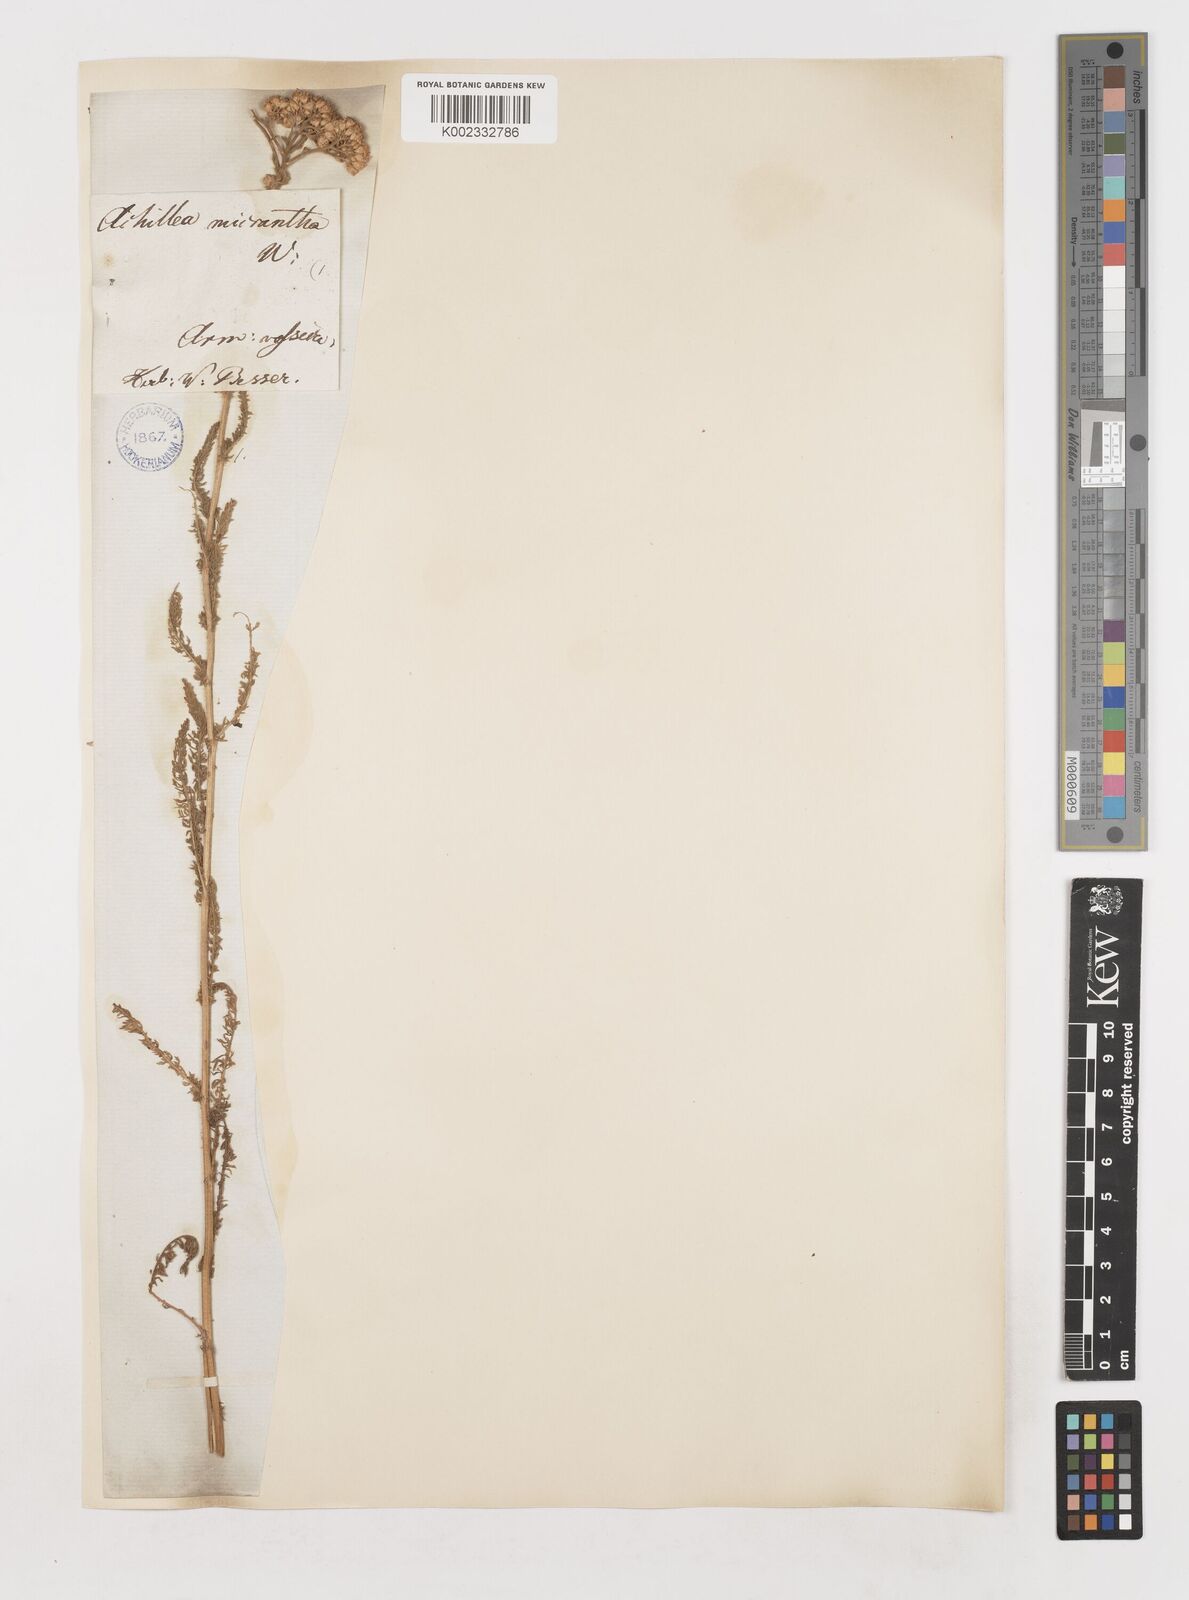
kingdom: Plantae
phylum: Tracheophyta
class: Magnoliopsida
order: Asterales
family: Asteraceae
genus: Achillea
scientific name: Achillea arabica
